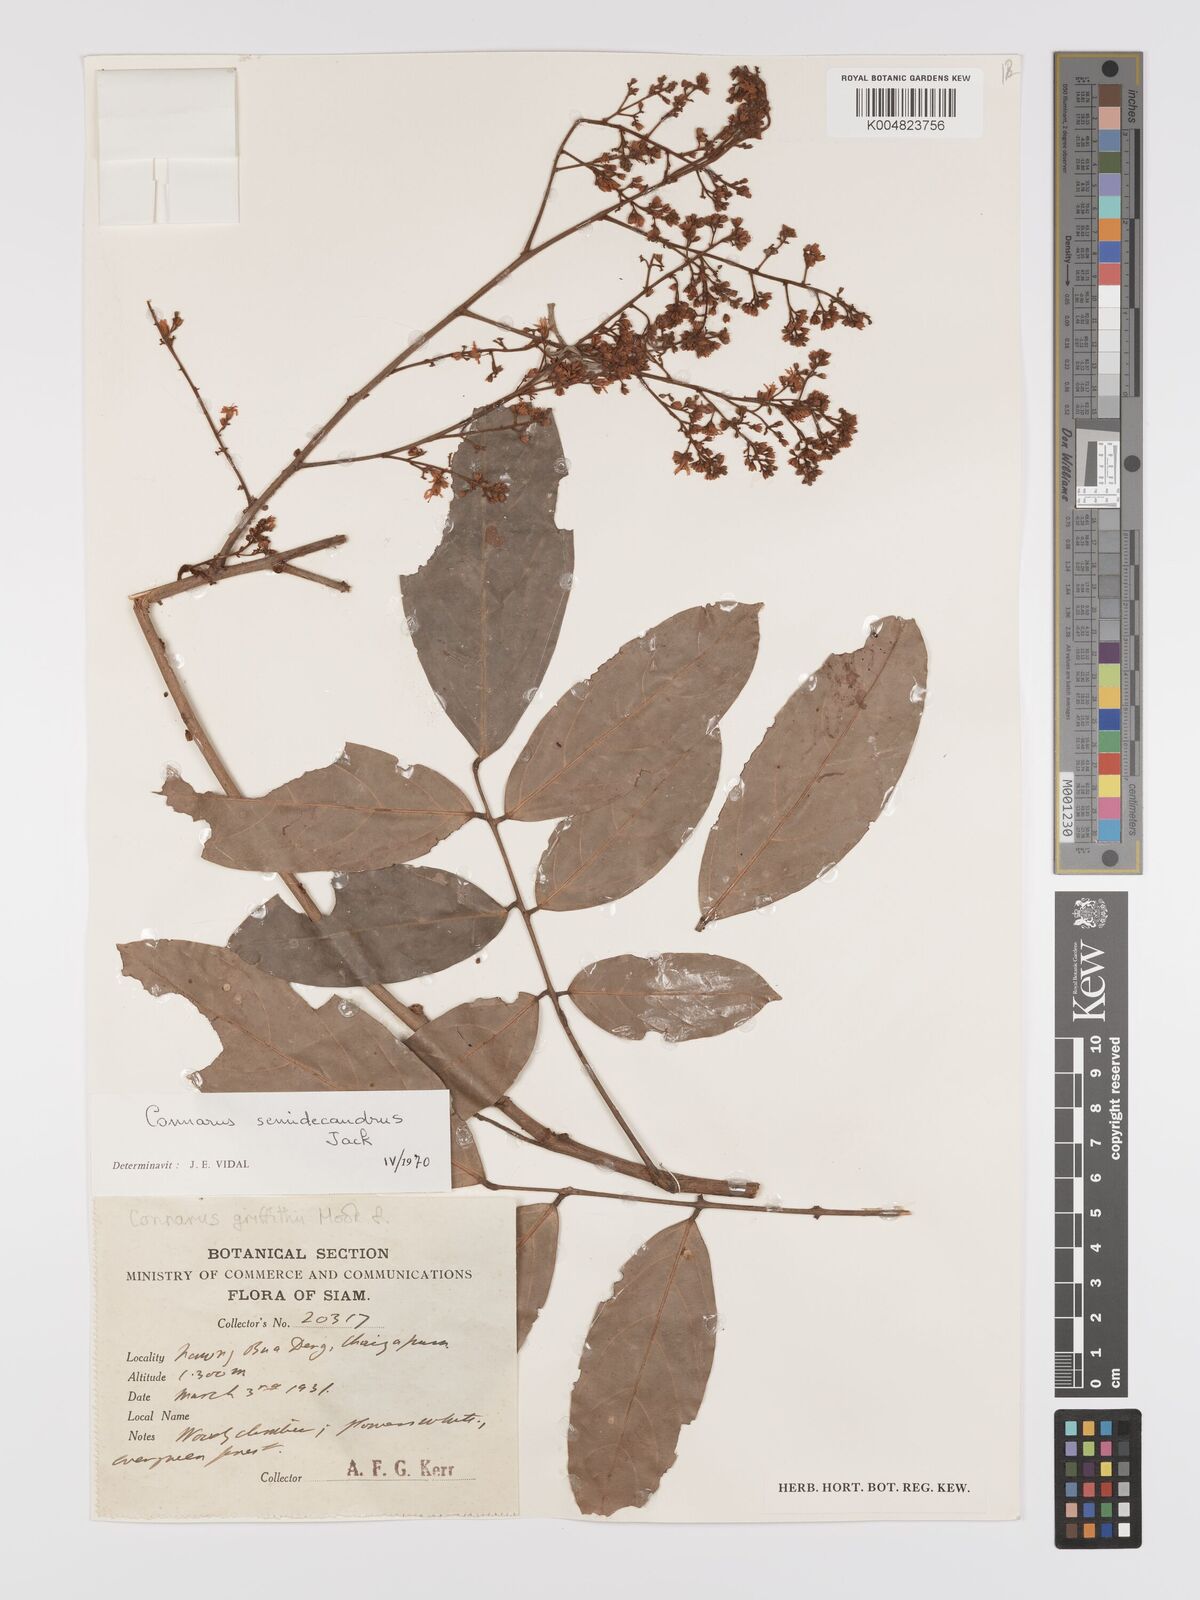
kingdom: Plantae
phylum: Tracheophyta
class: Magnoliopsida
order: Oxalidales
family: Connaraceae
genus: Connarus
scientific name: Connarus semidecandrus
